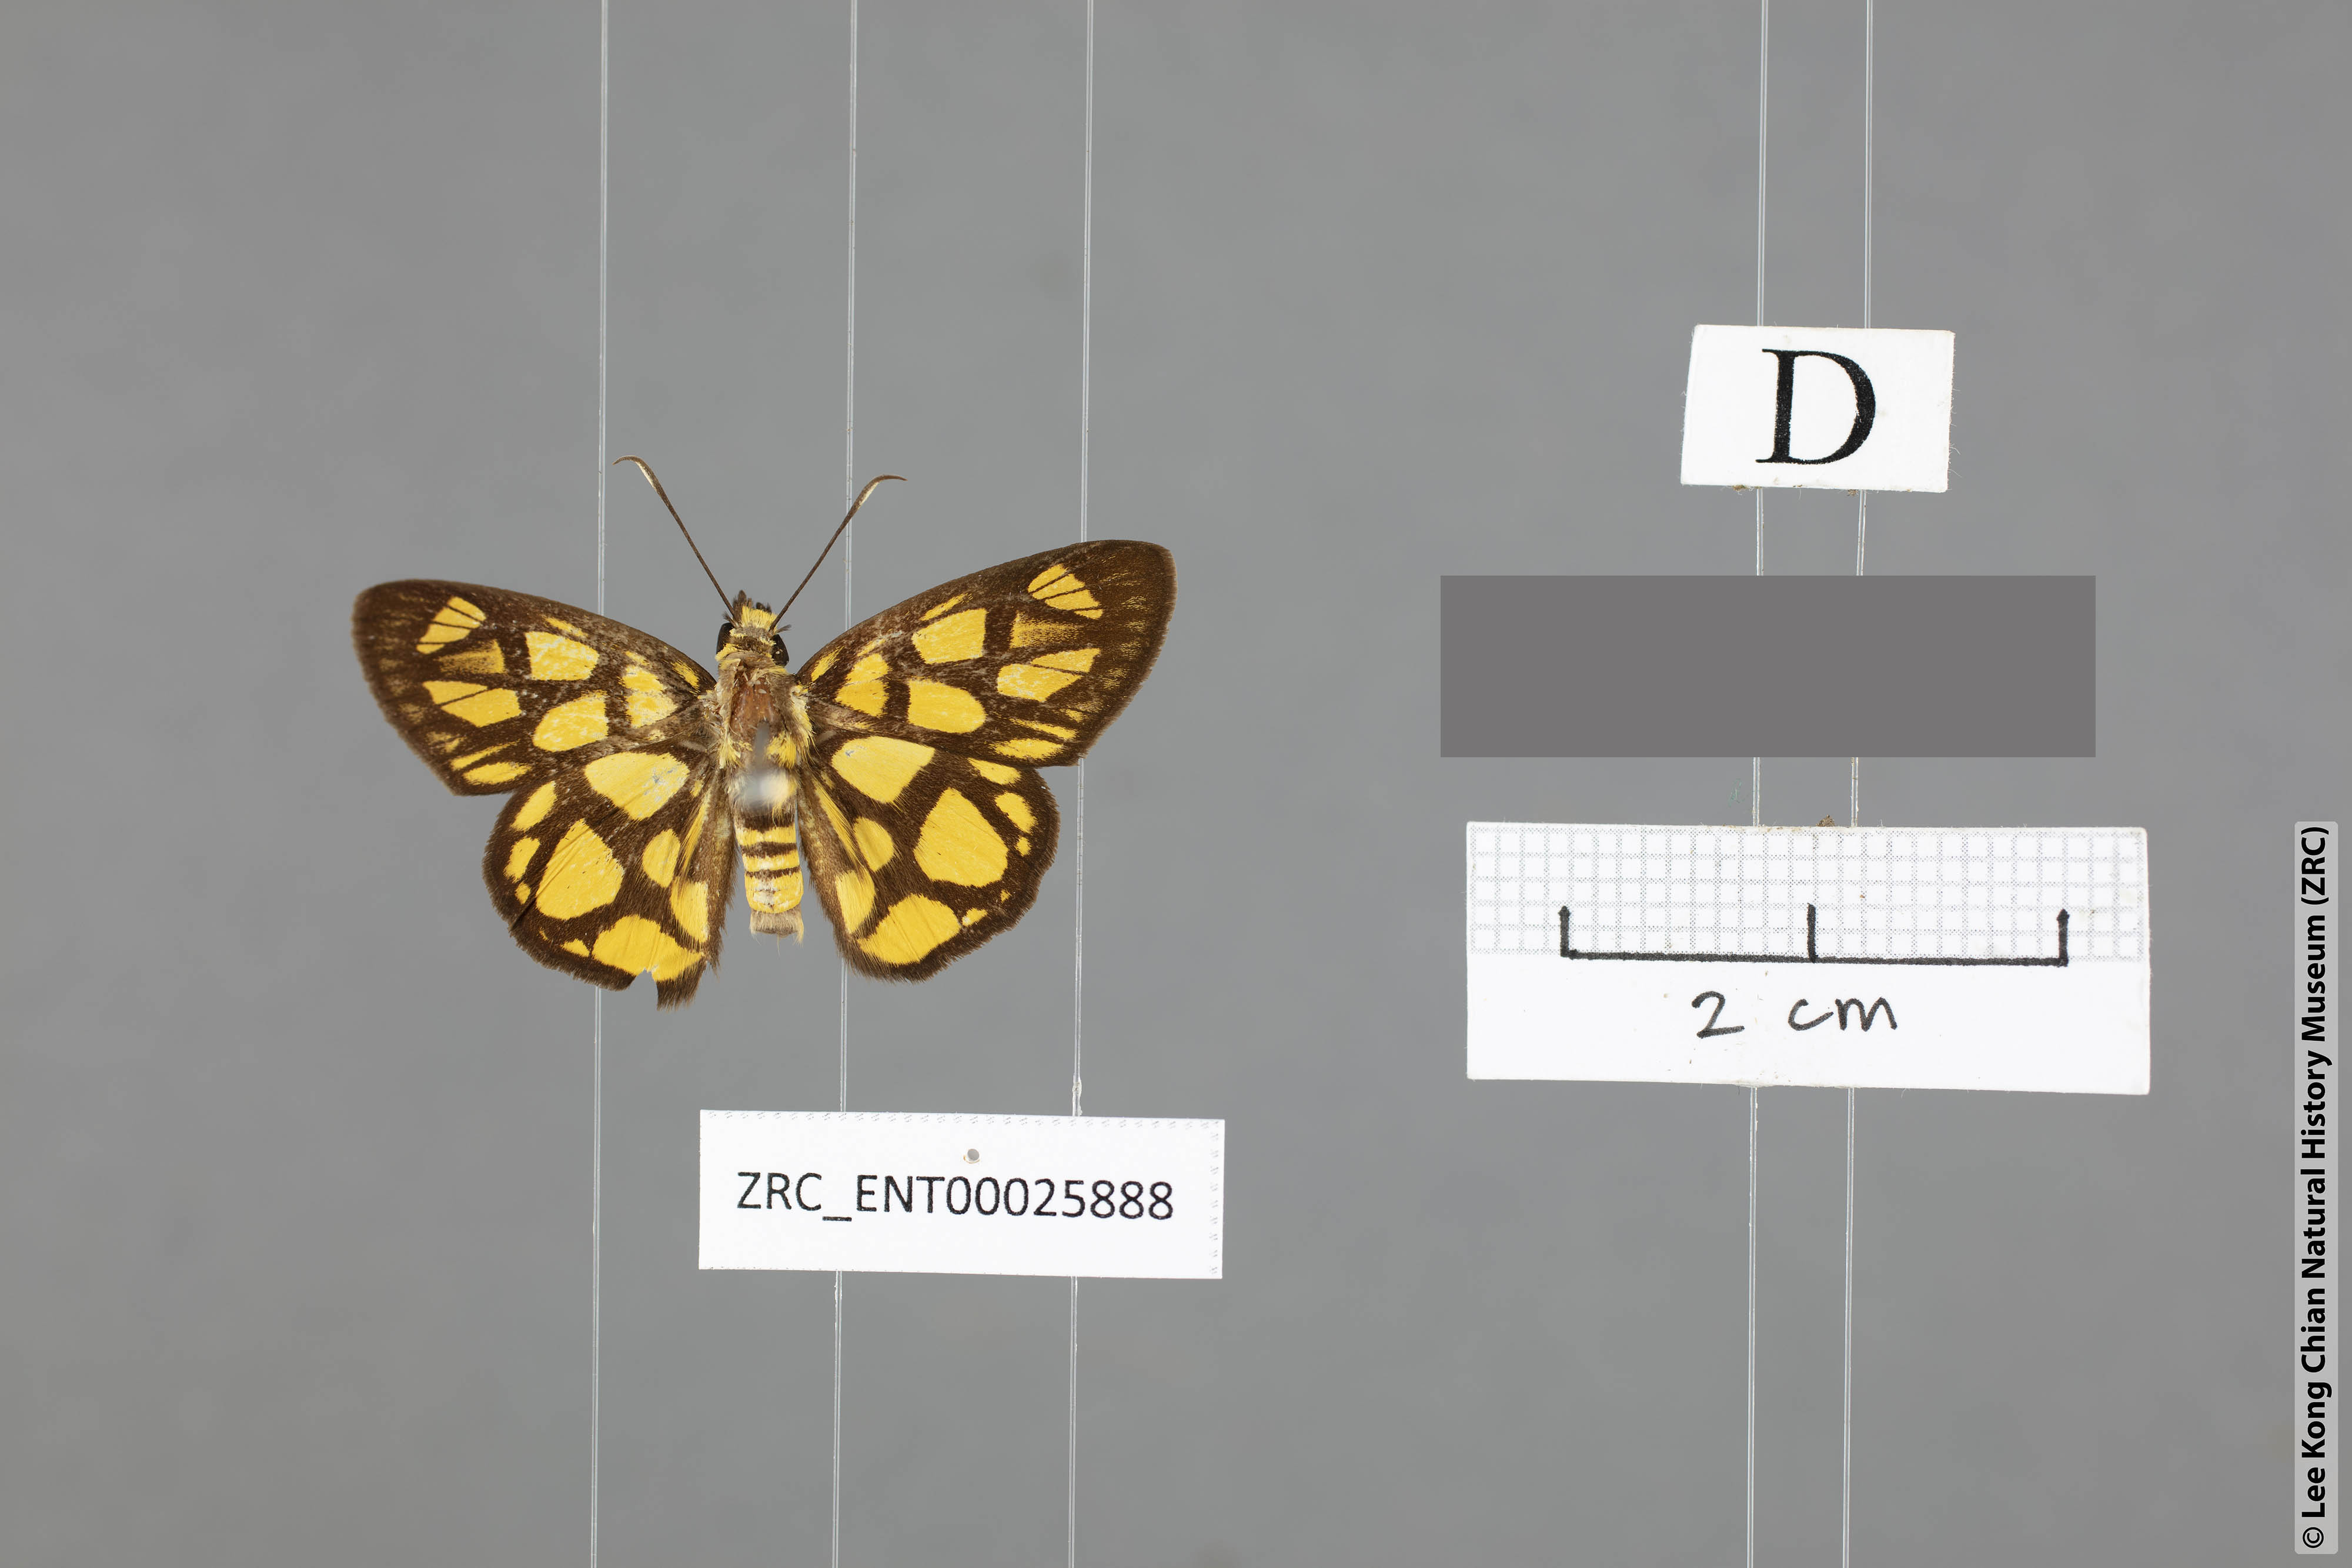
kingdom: Animalia
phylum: Arthropoda
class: Insecta
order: Lepidoptera
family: Hesperiidae
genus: Odina
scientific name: Odina hieroglyphica
